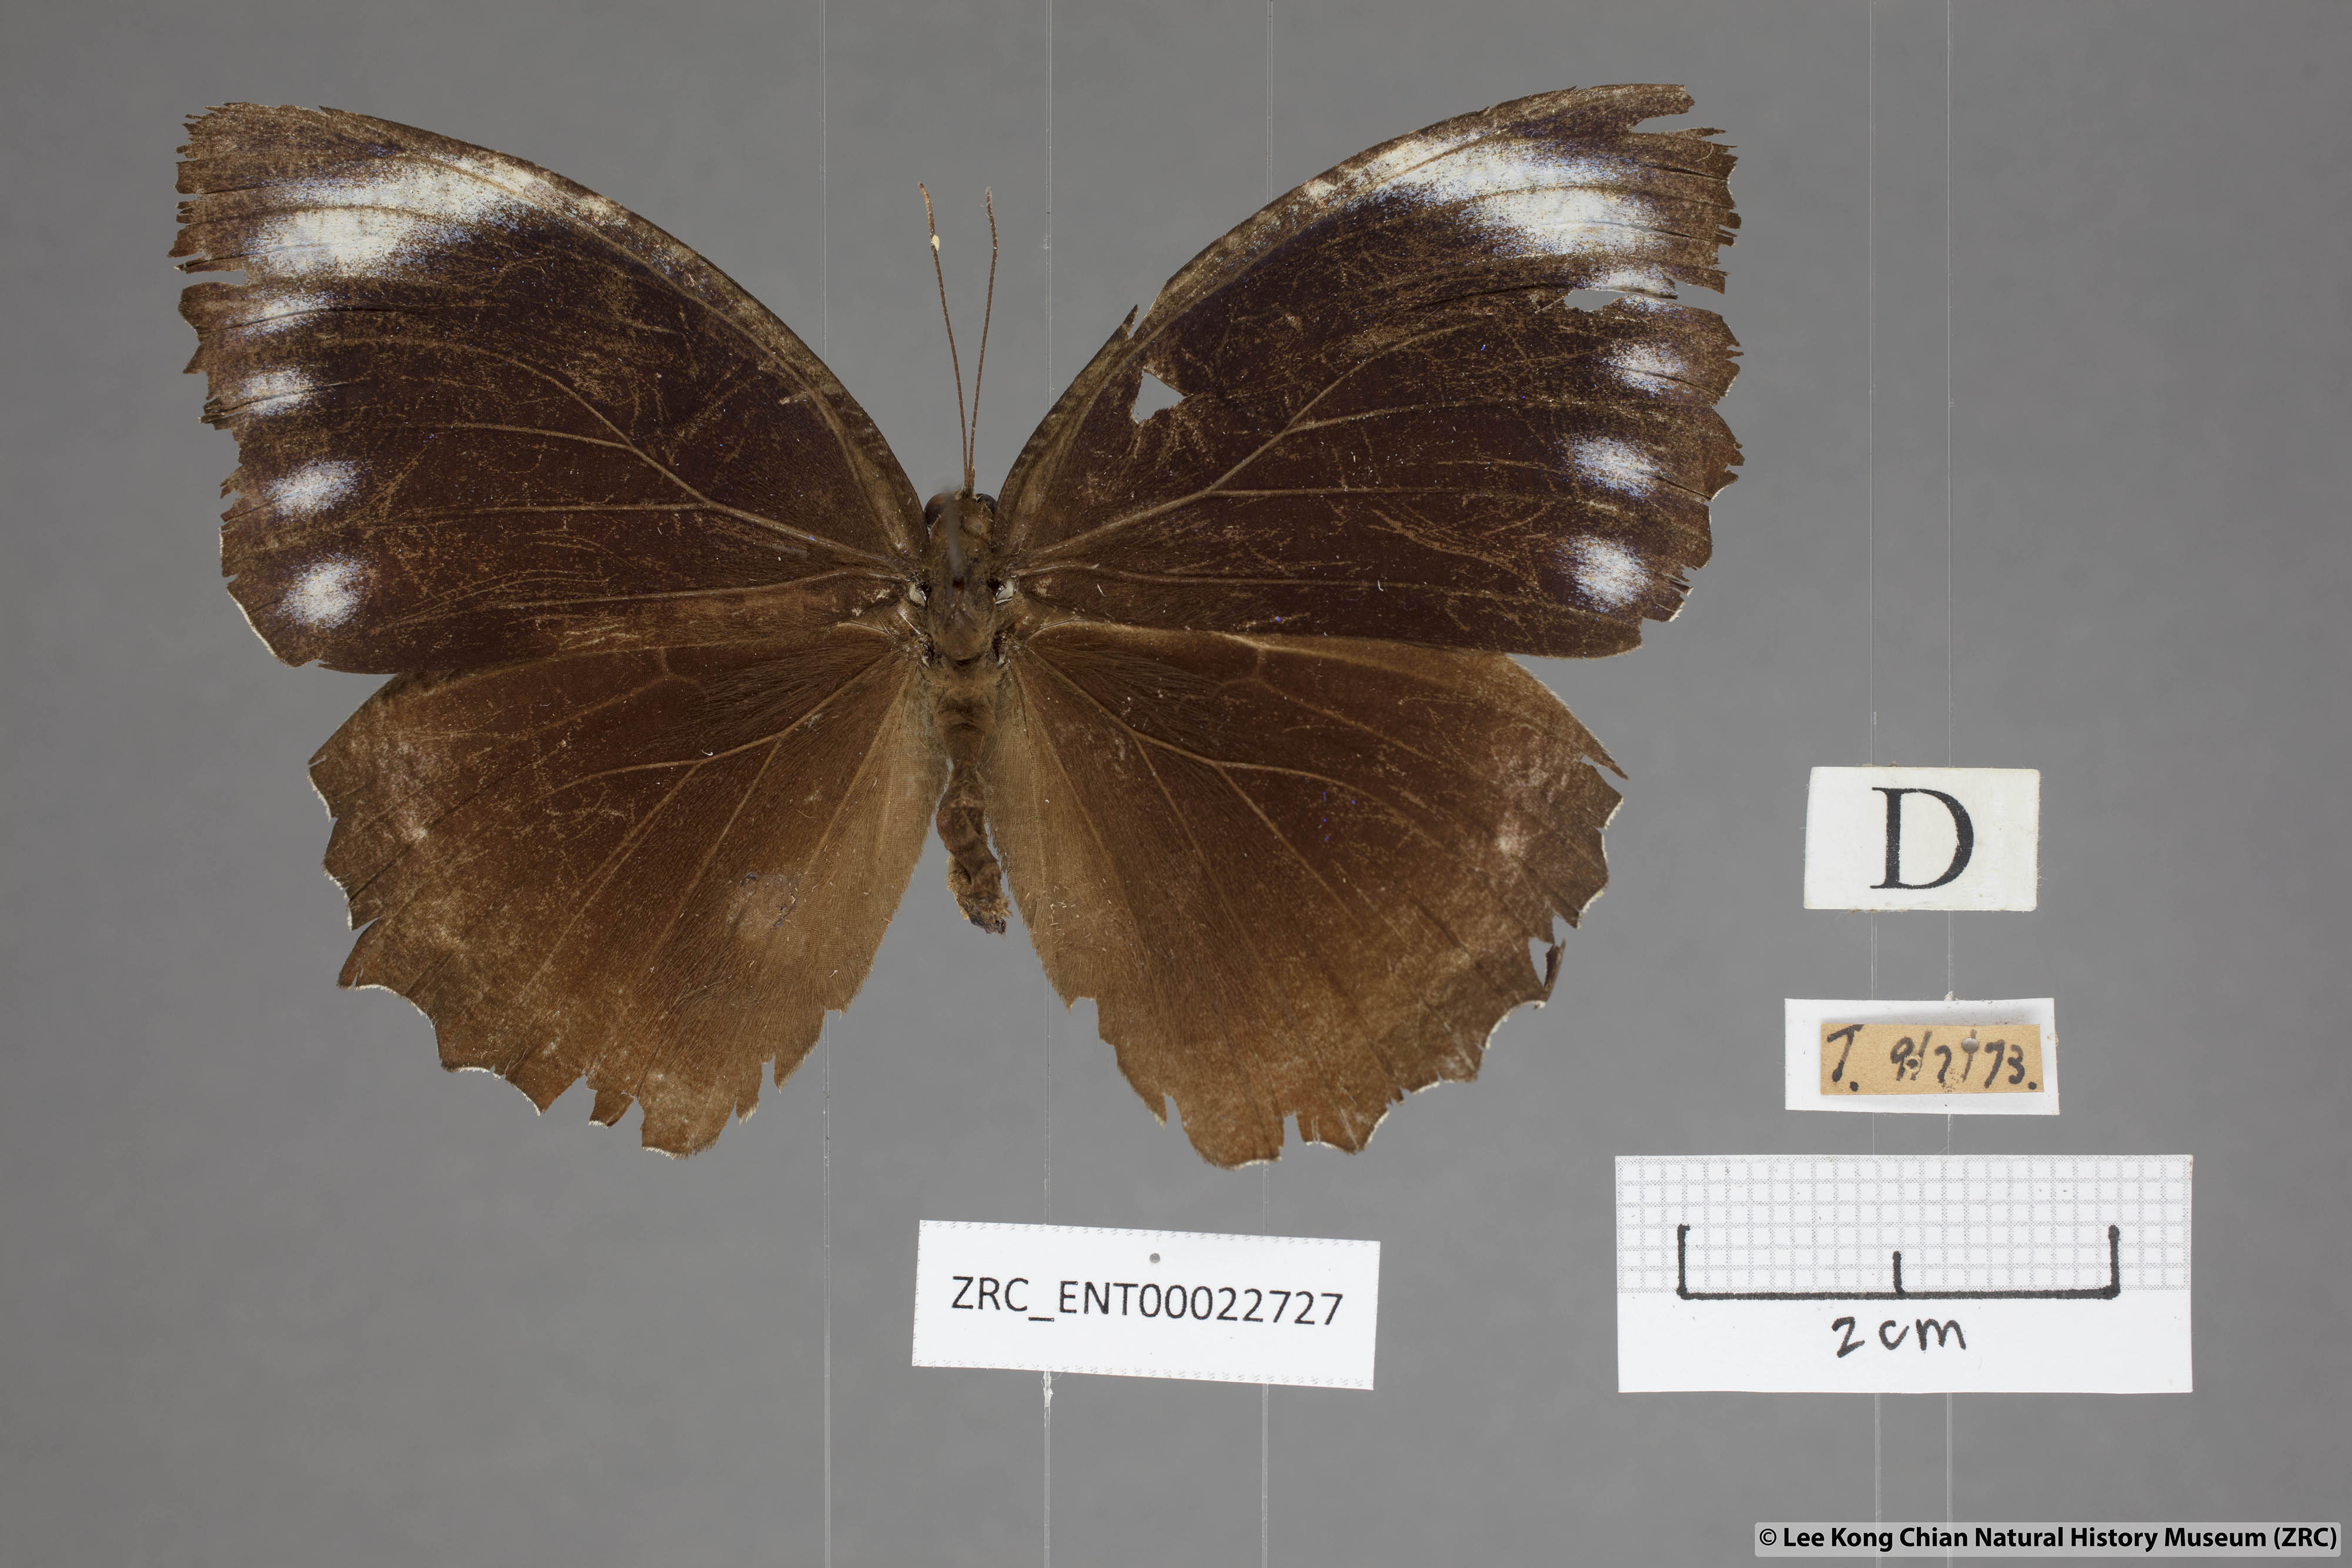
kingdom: Animalia
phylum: Arthropoda
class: Insecta
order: Lepidoptera
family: Nymphalidae
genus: Elymnias
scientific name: Elymnias hypermnestra
